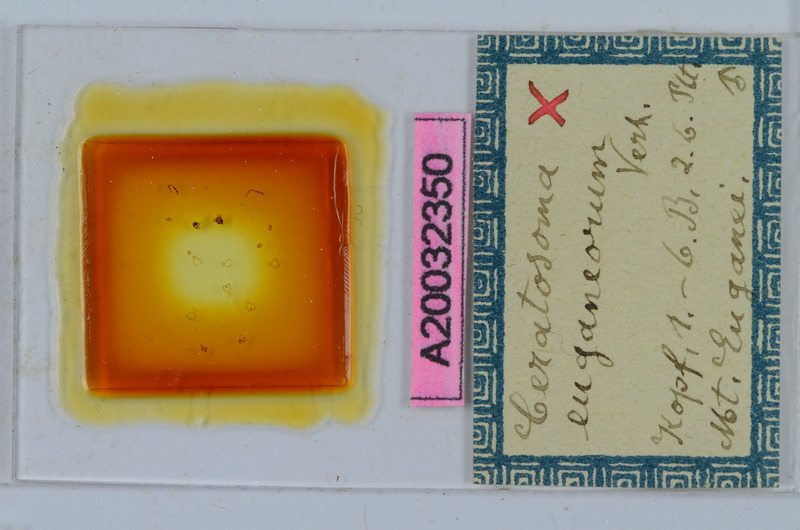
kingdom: Animalia
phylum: Arthropoda
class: Diplopoda
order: Chordeumatida
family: Craspedosomatidae
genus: Ochogona
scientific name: Ochogona euganeorum
